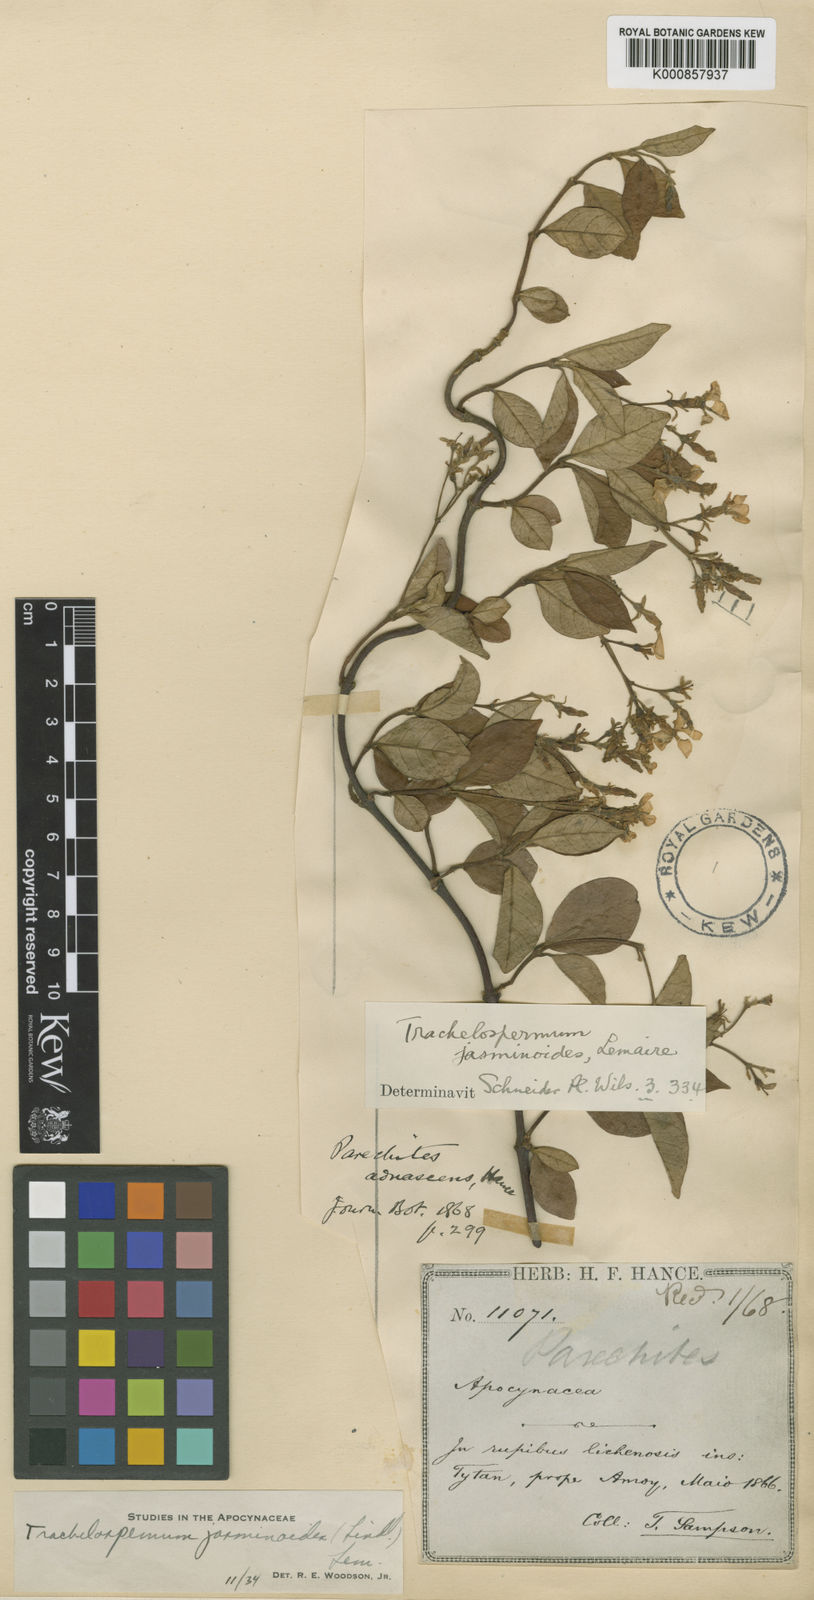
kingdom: Plantae
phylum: Tracheophyta
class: Magnoliopsida
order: Gentianales
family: Apocynaceae
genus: Trachelospermum
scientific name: Trachelospermum jasminoides
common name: Confederate jasmine
